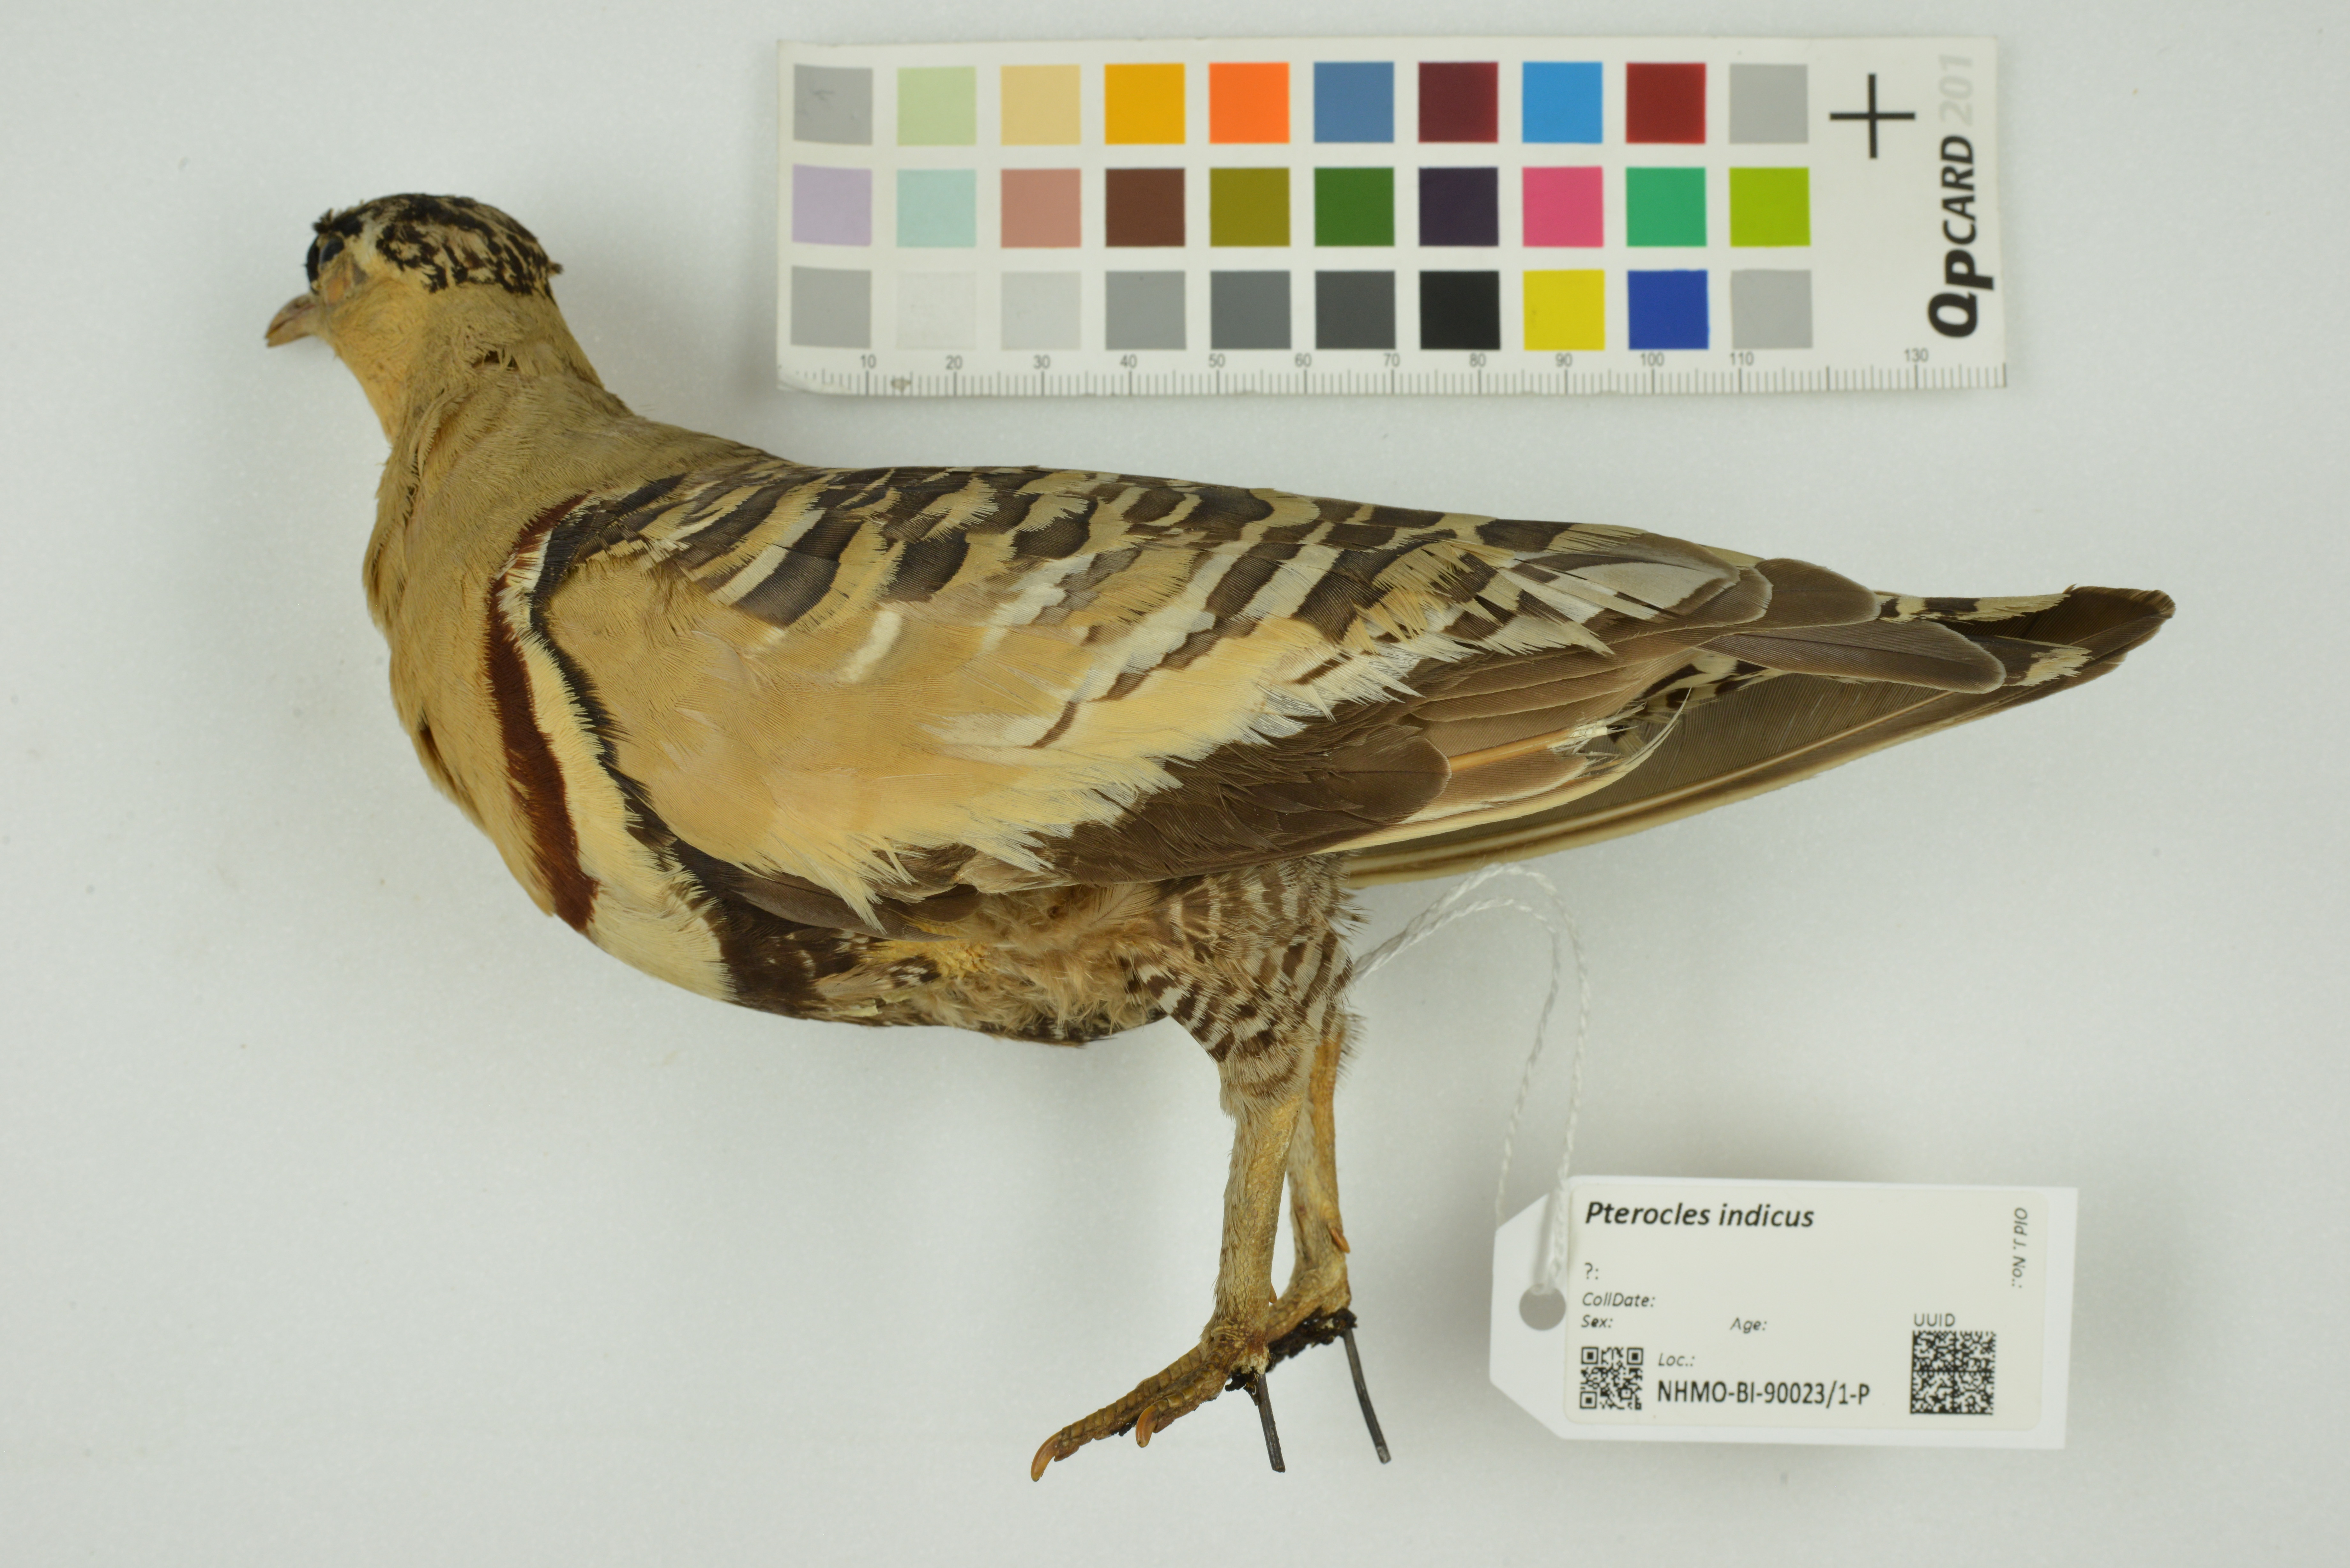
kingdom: Animalia
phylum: Chordata
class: Aves
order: Pteroclidiformes
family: Pteroclididae
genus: Pterocles
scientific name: Pterocles indicus
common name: Painted sandgrouse
